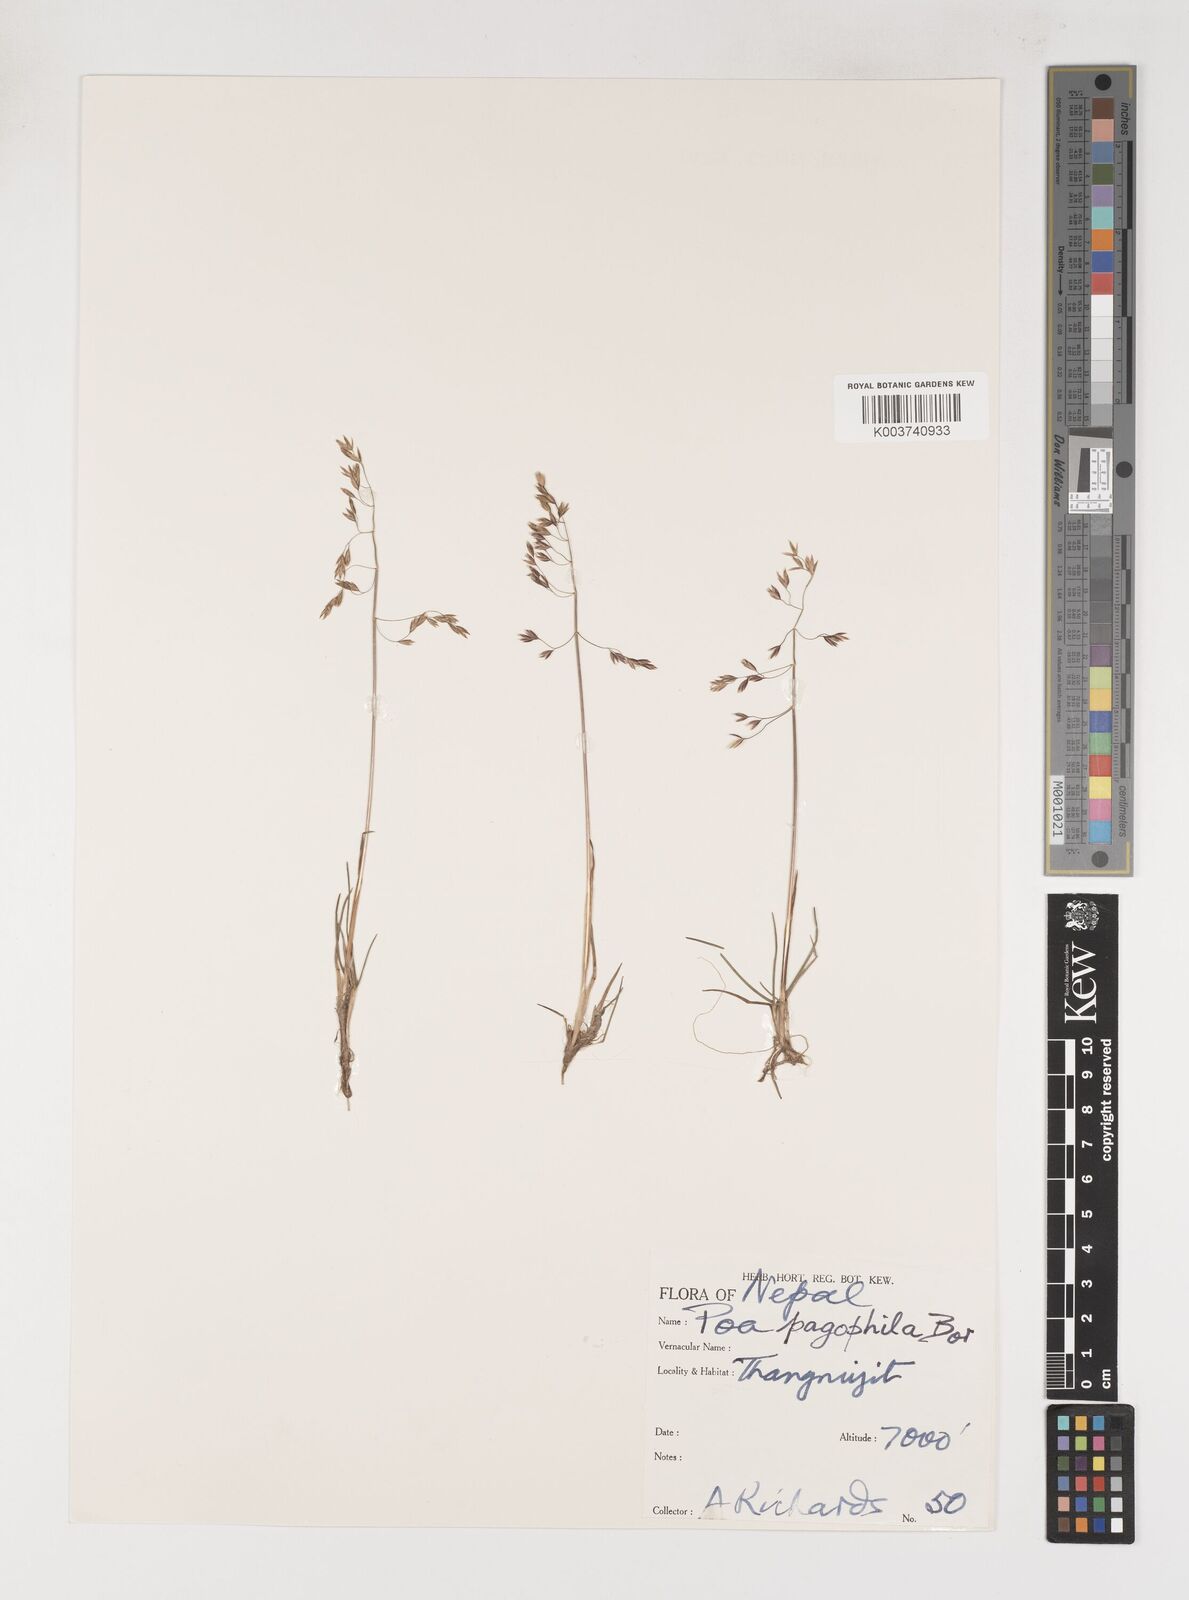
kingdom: Plantae
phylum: Tracheophyta
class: Liliopsida
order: Poales
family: Poaceae
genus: Poa
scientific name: Poa pagophila
